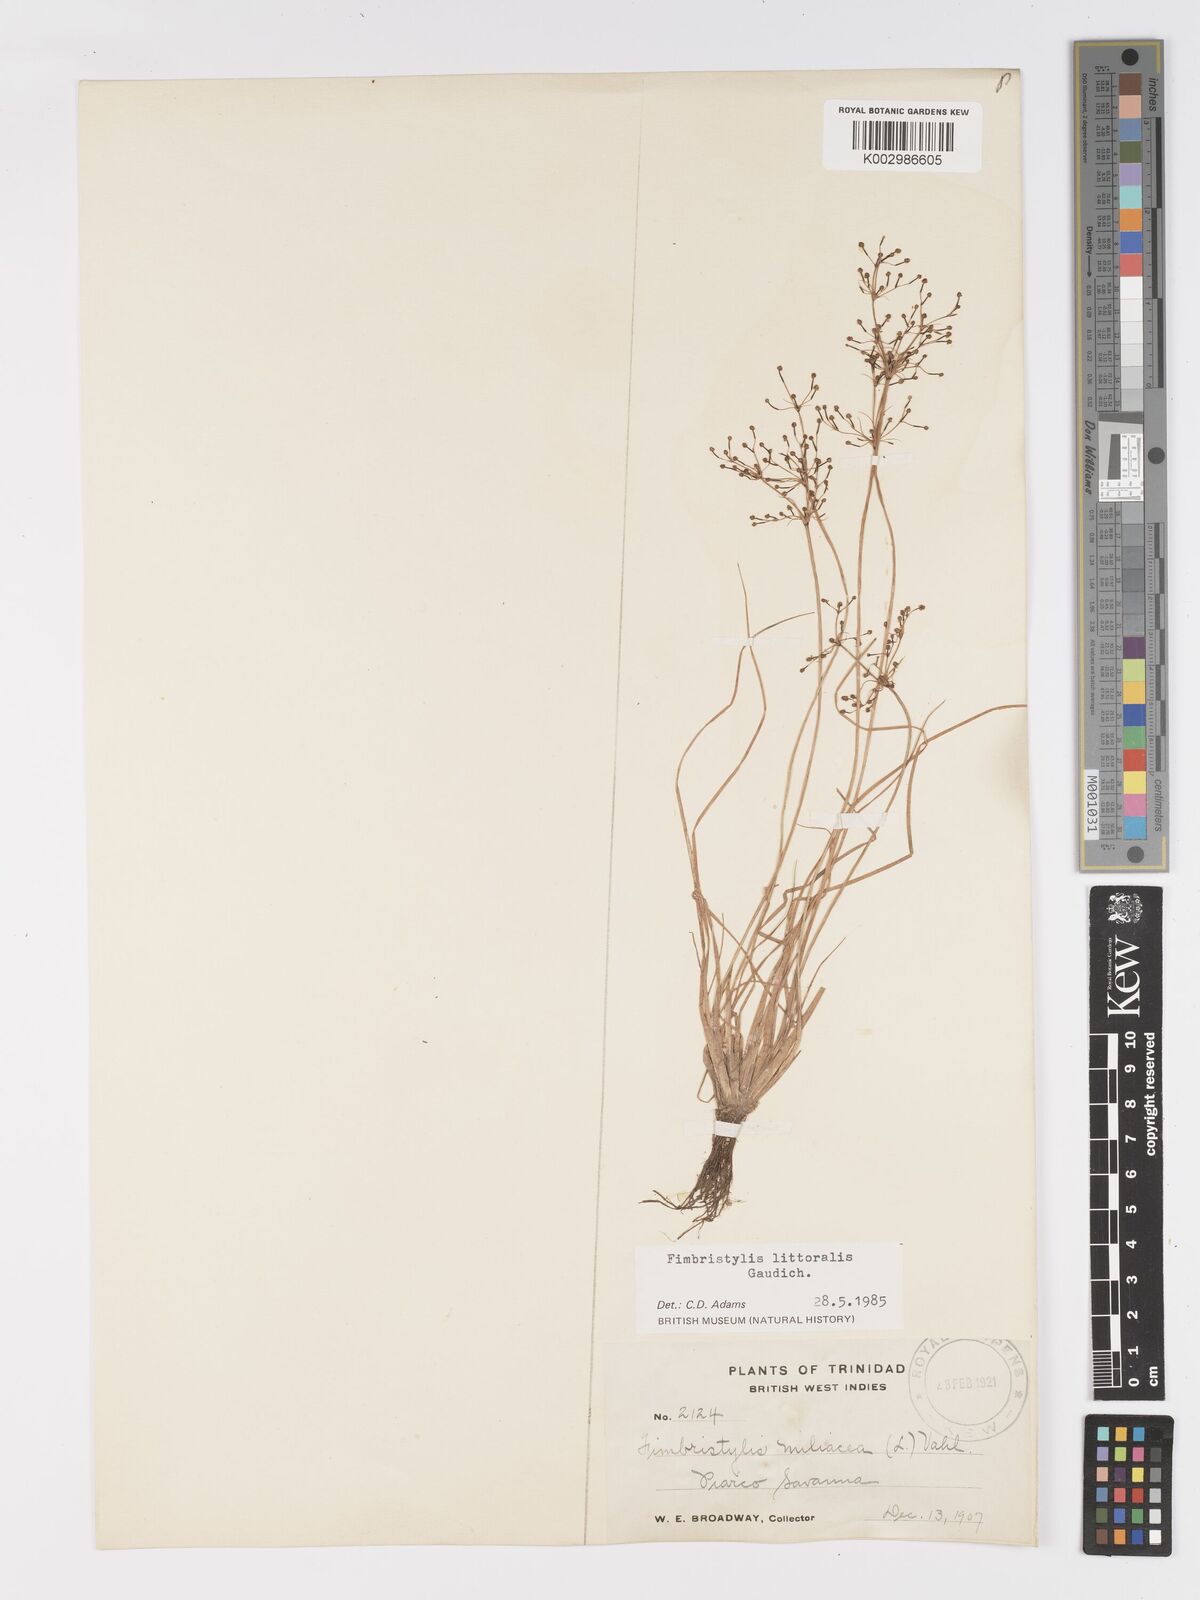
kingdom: Plantae
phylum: Tracheophyta
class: Liliopsida
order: Poales
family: Cyperaceae
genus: Fimbristylis
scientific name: Fimbristylis littoralis
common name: Fimbry
